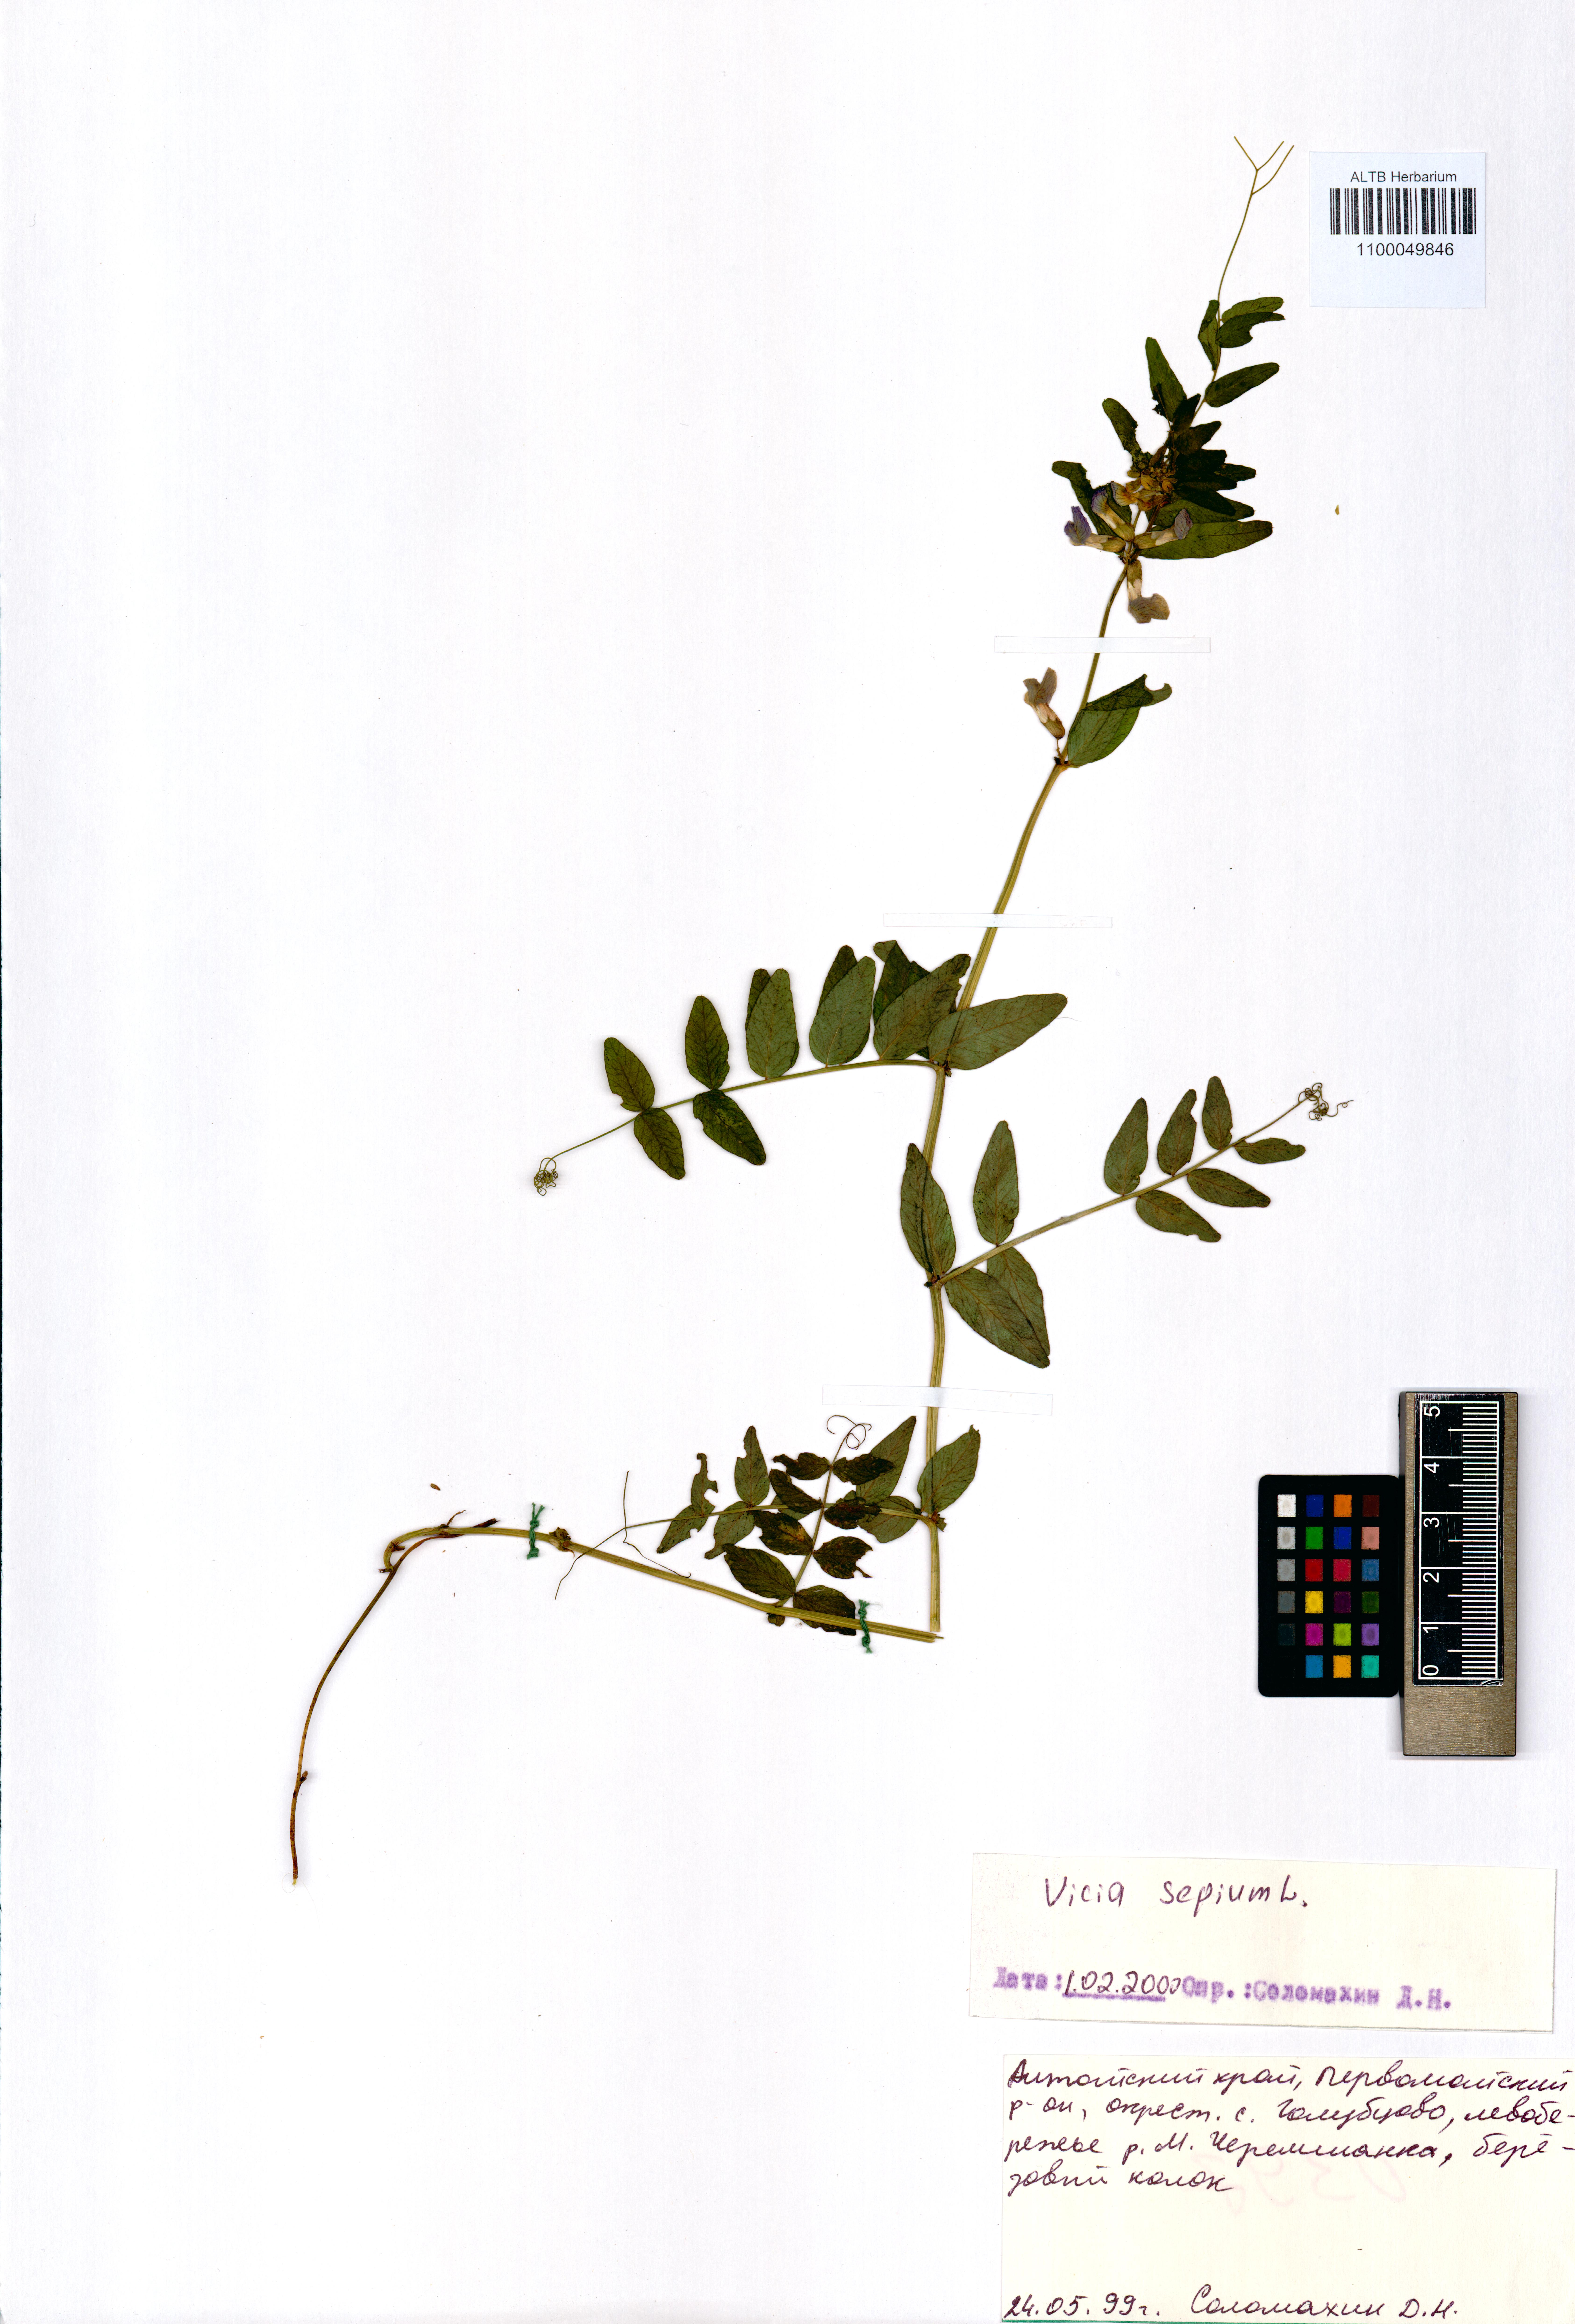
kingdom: Plantae
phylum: Tracheophyta
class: Magnoliopsida
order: Fabales
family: Fabaceae
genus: Vicia
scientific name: Vicia sepium
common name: Bush vetch
